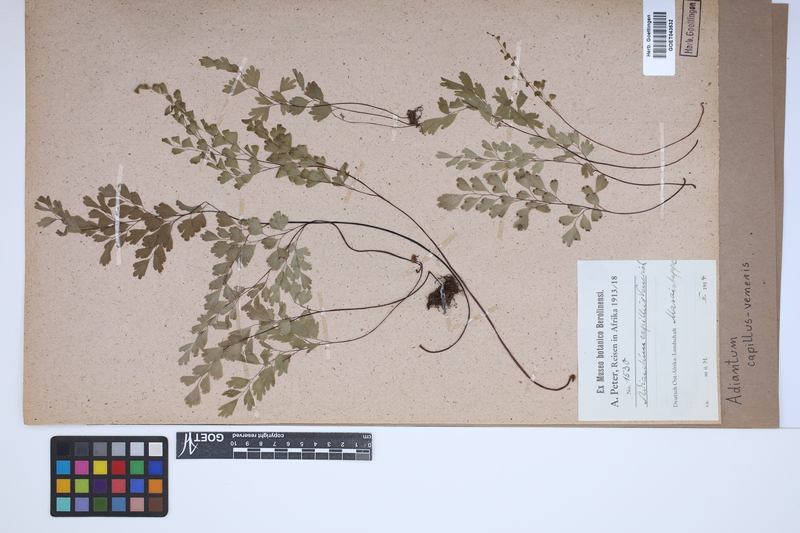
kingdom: Plantae
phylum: Tracheophyta
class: Polypodiopsida
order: Polypodiales
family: Pteridaceae
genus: Adiantum
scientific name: Adiantum capillus-veneris
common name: Maidenhair fern
